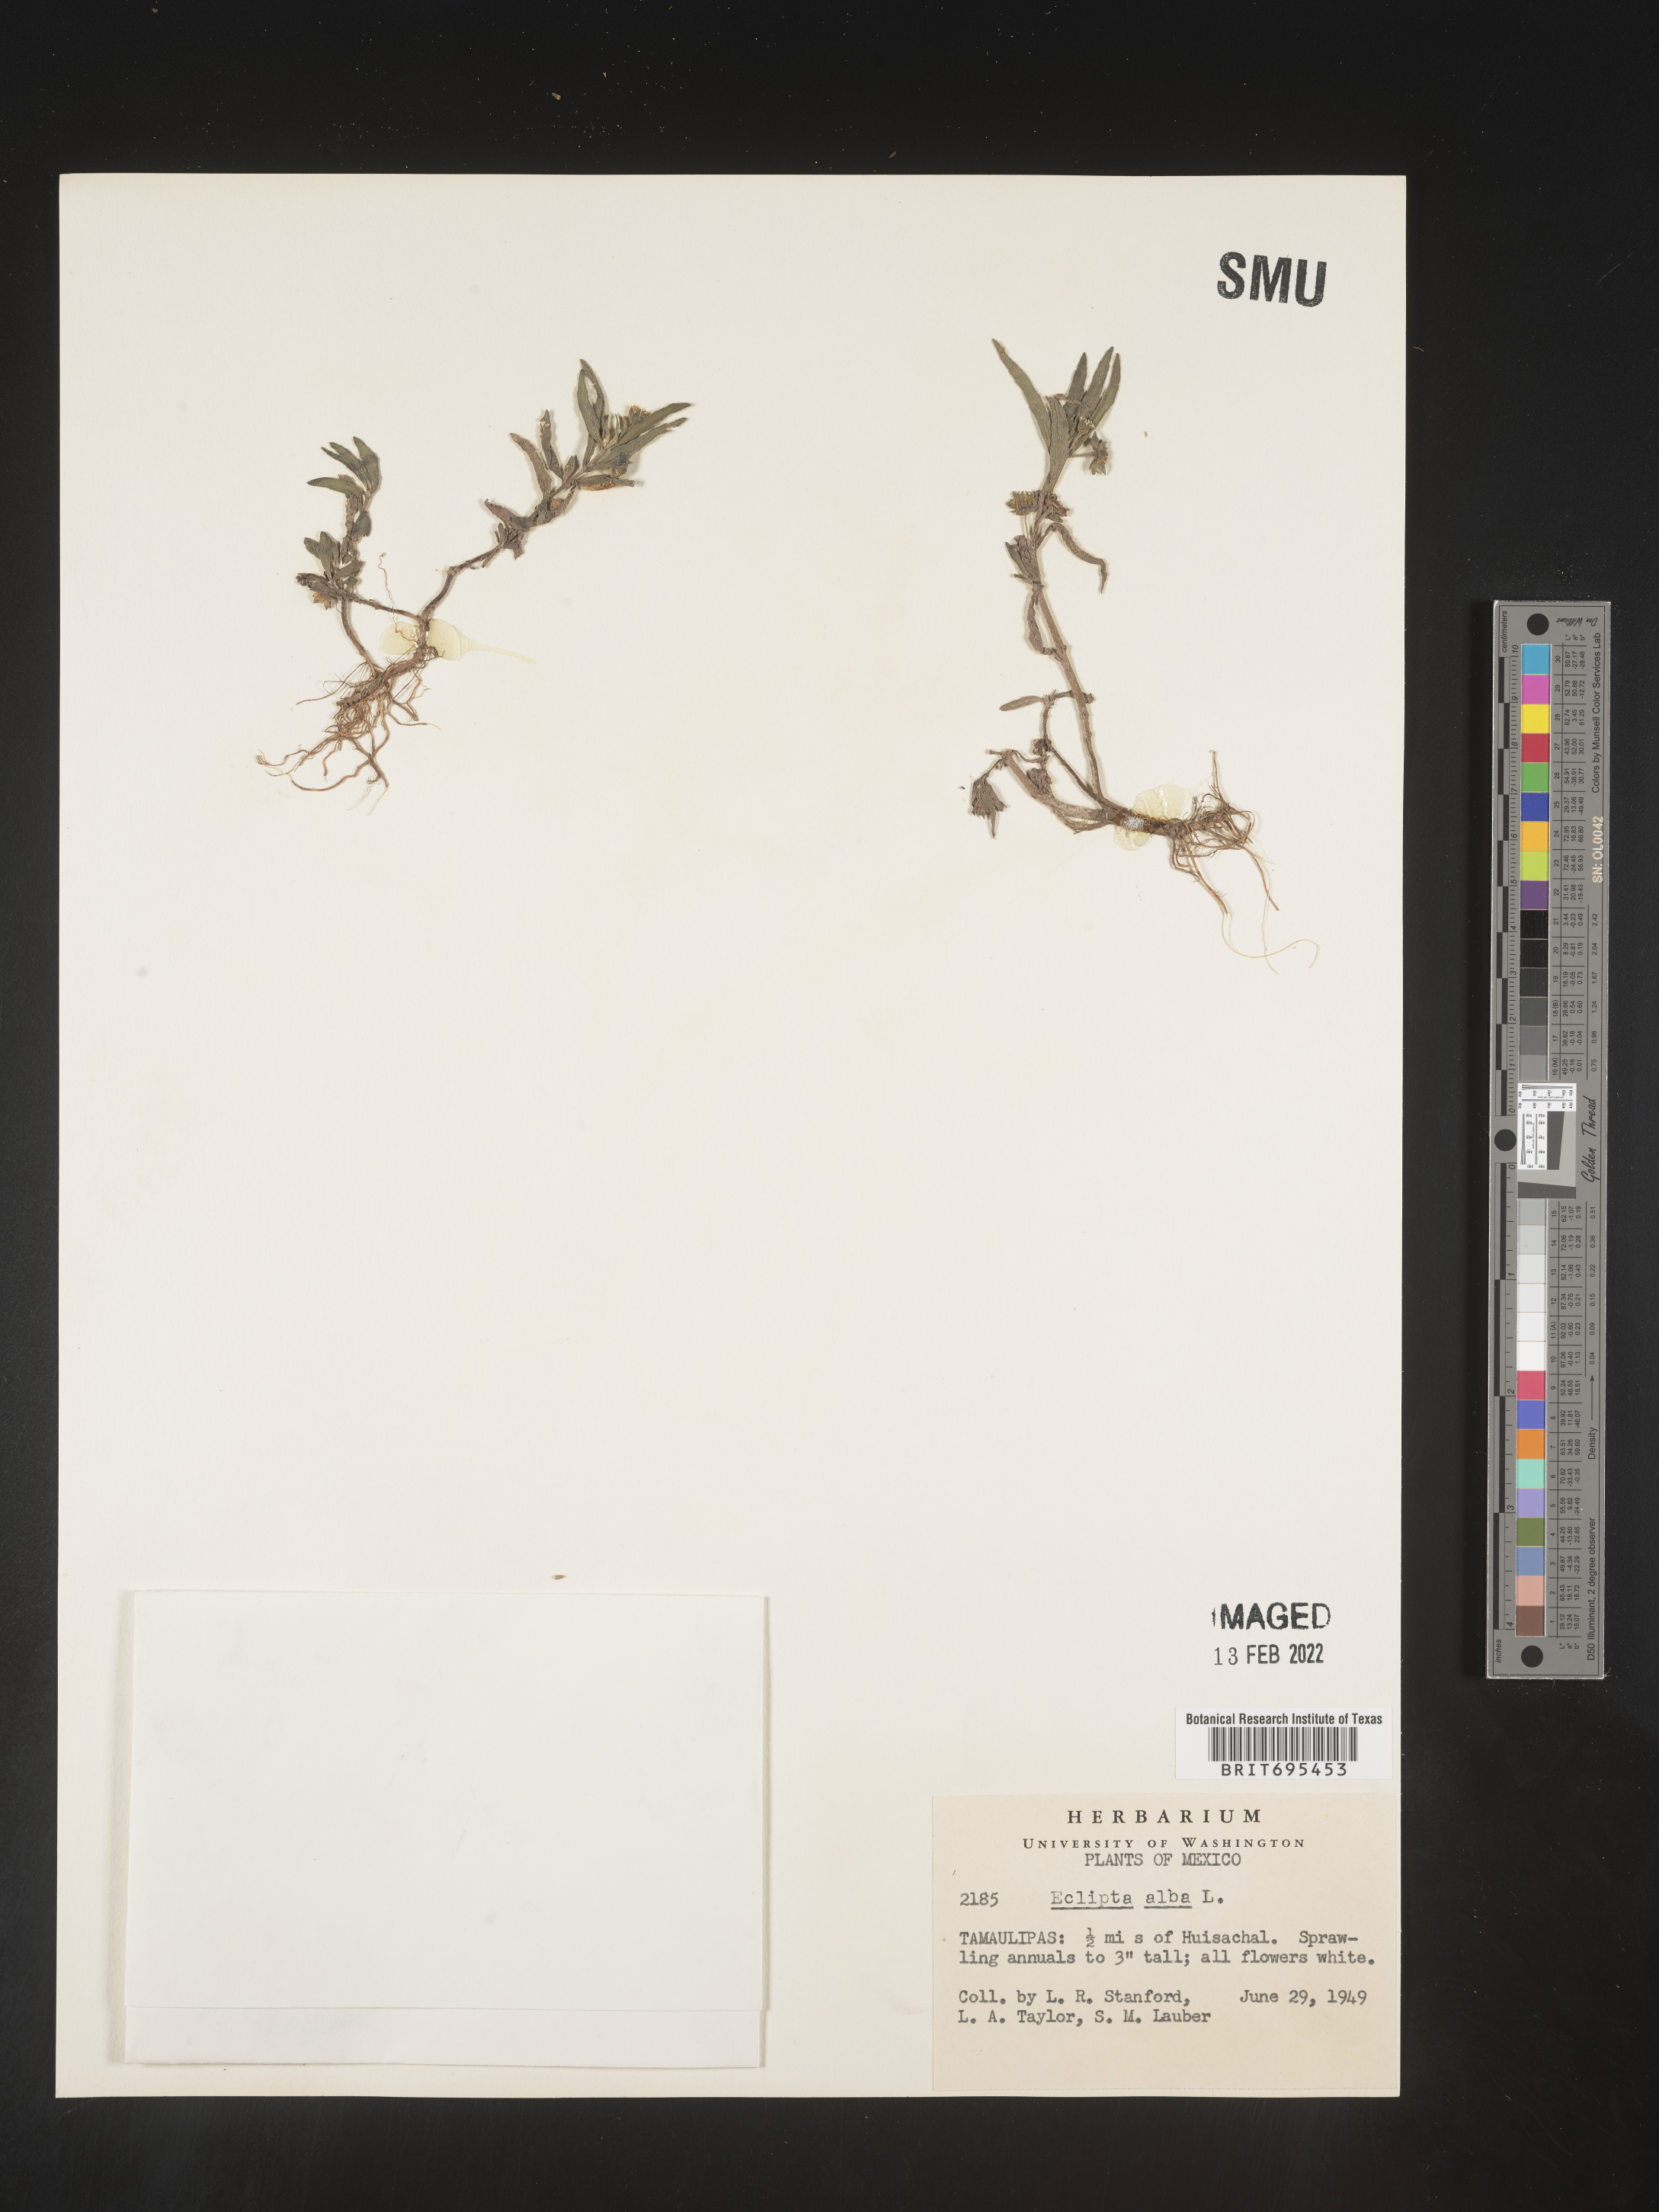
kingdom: Plantae
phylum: Tracheophyta
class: Magnoliopsida
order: Asterales
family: Asteraceae
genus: Eclipta
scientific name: Eclipta
